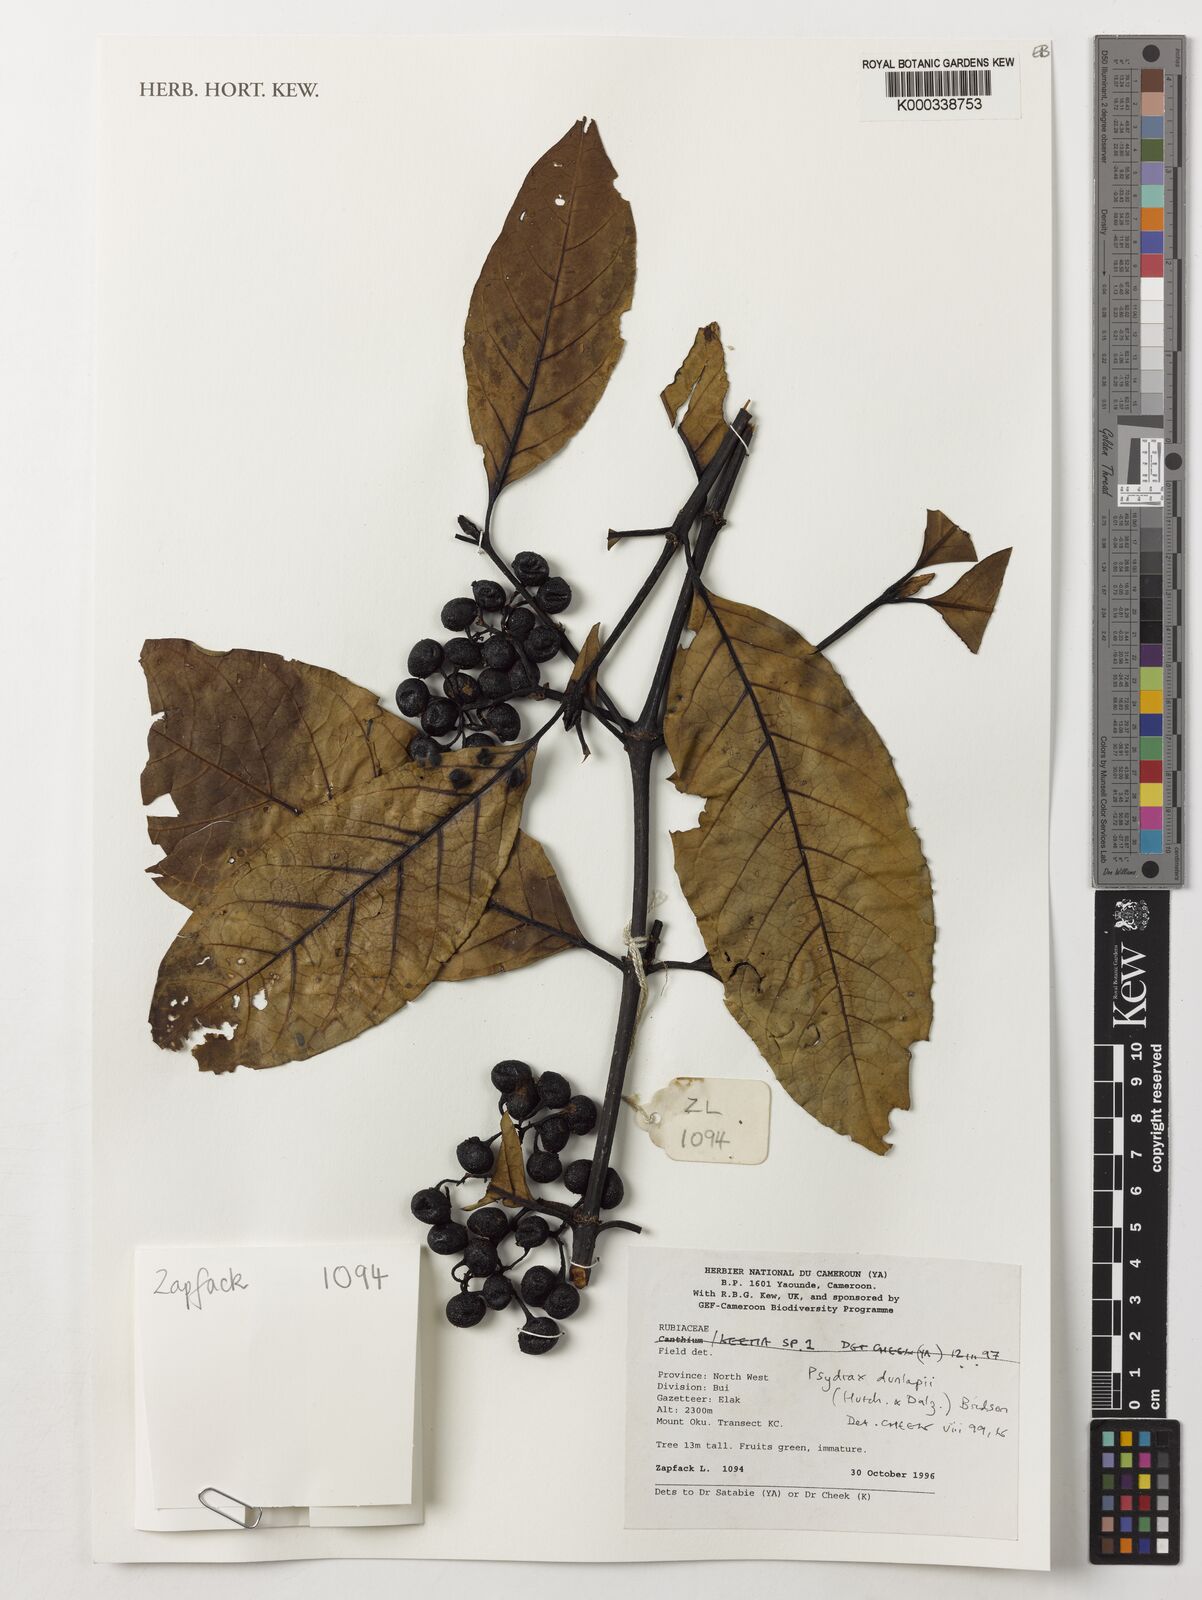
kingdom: Plantae
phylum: Tracheophyta
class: Magnoliopsida
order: Gentianales
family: Rubiaceae
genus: Psydrax
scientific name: Psydrax dunlapii
